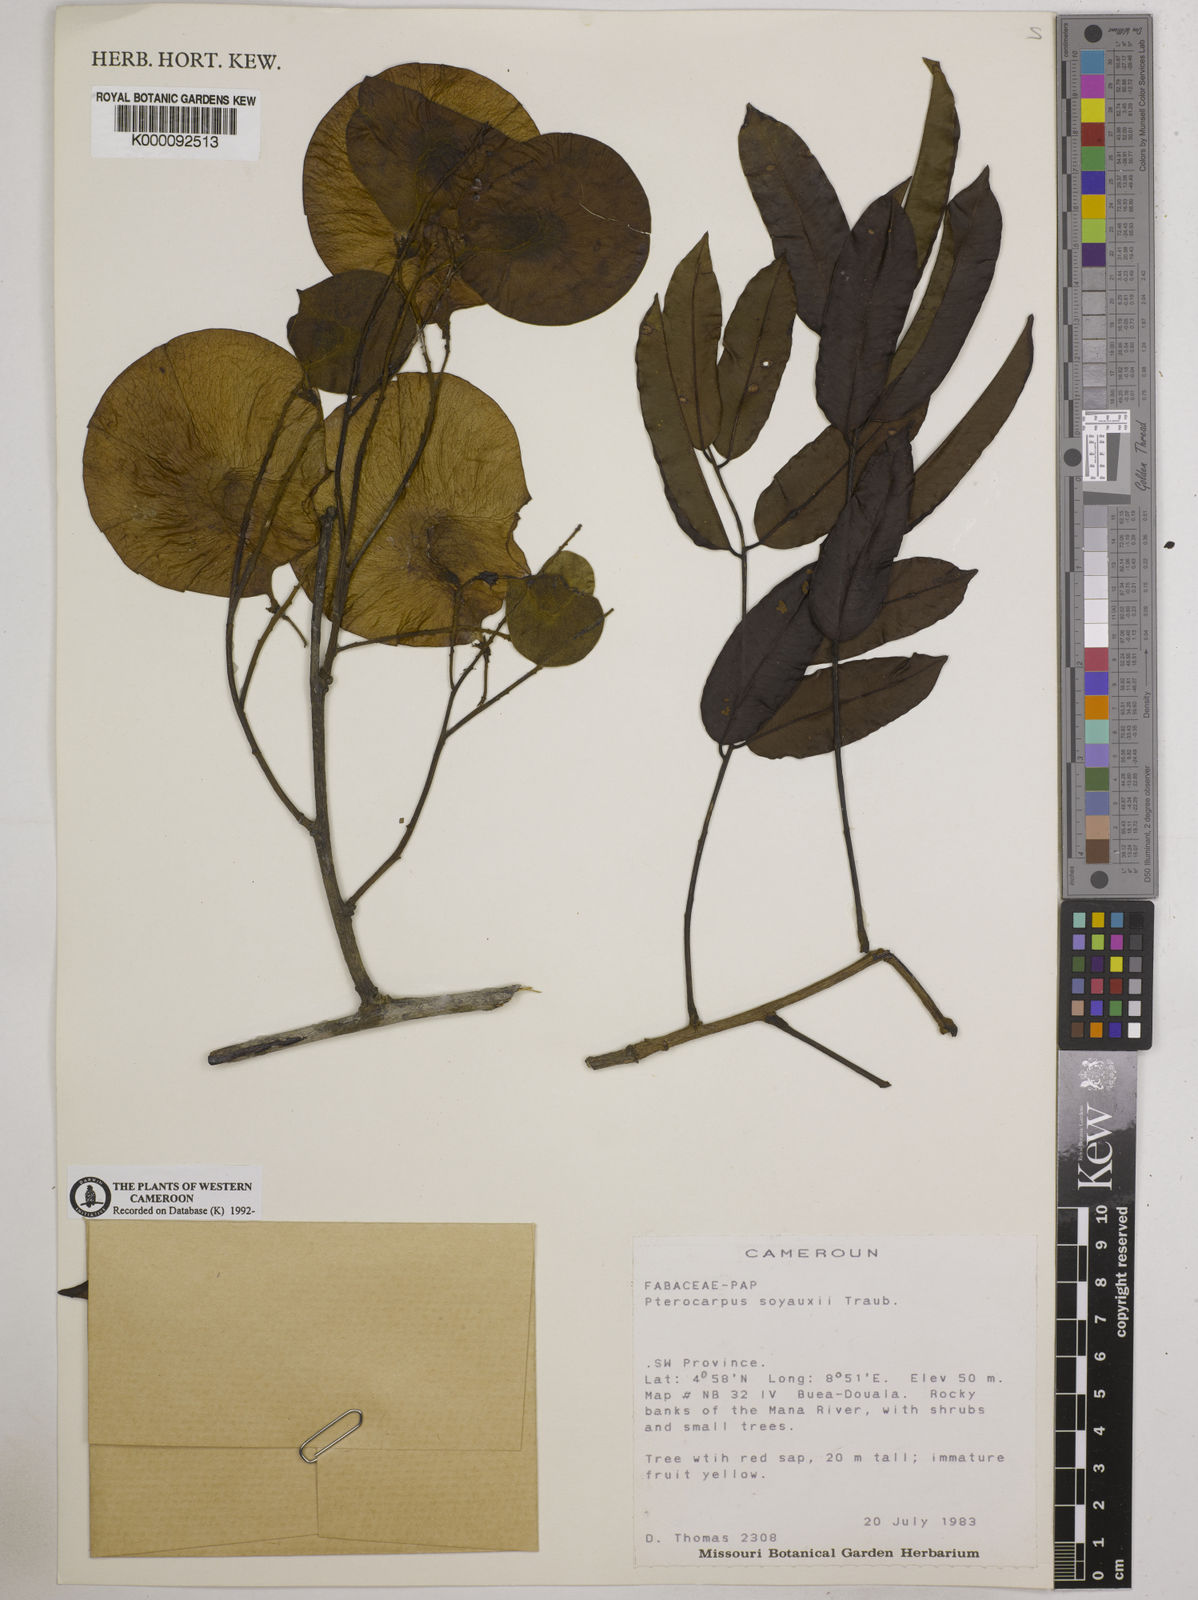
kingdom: Plantae
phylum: Tracheophyta
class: Magnoliopsida
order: Fabales
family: Fabaceae
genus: Pterocarpus
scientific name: Pterocarpus soyauxii
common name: African coralwood
